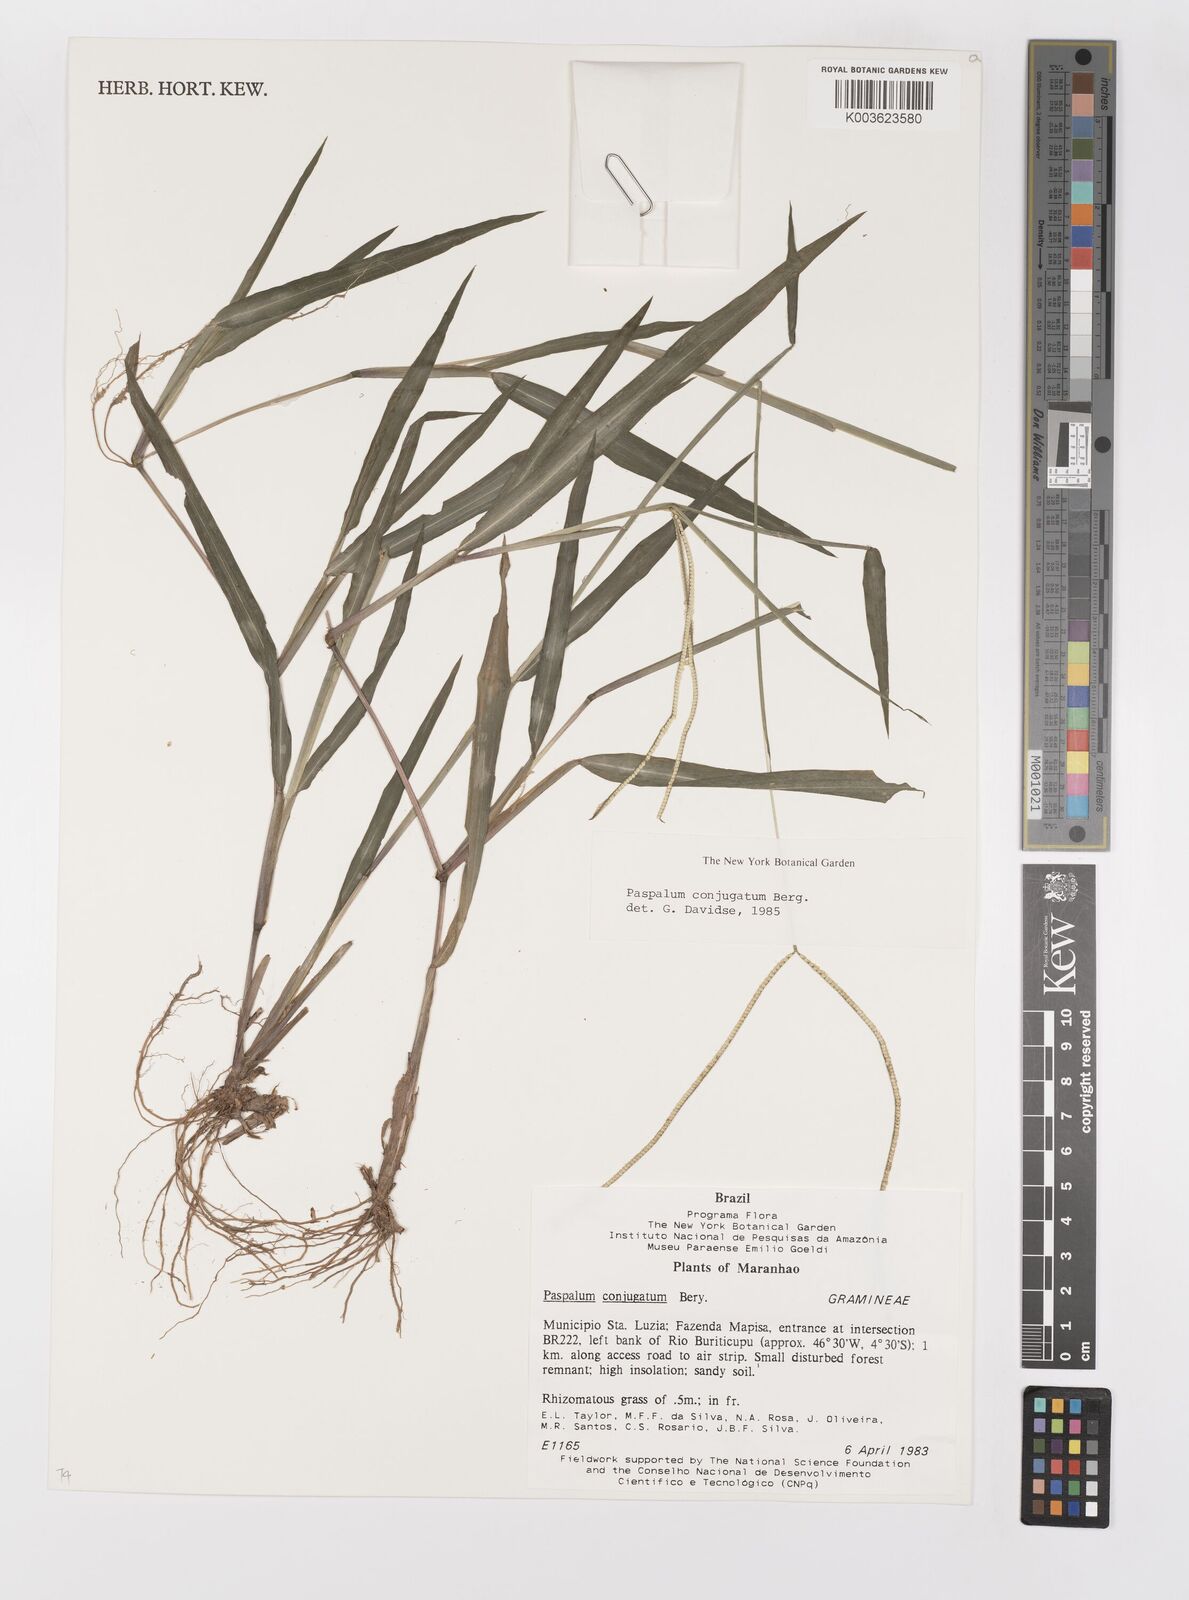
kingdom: Plantae
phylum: Tracheophyta
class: Liliopsida
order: Poales
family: Poaceae
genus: Paspalum
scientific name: Paspalum conjugatum
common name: Hilograss
